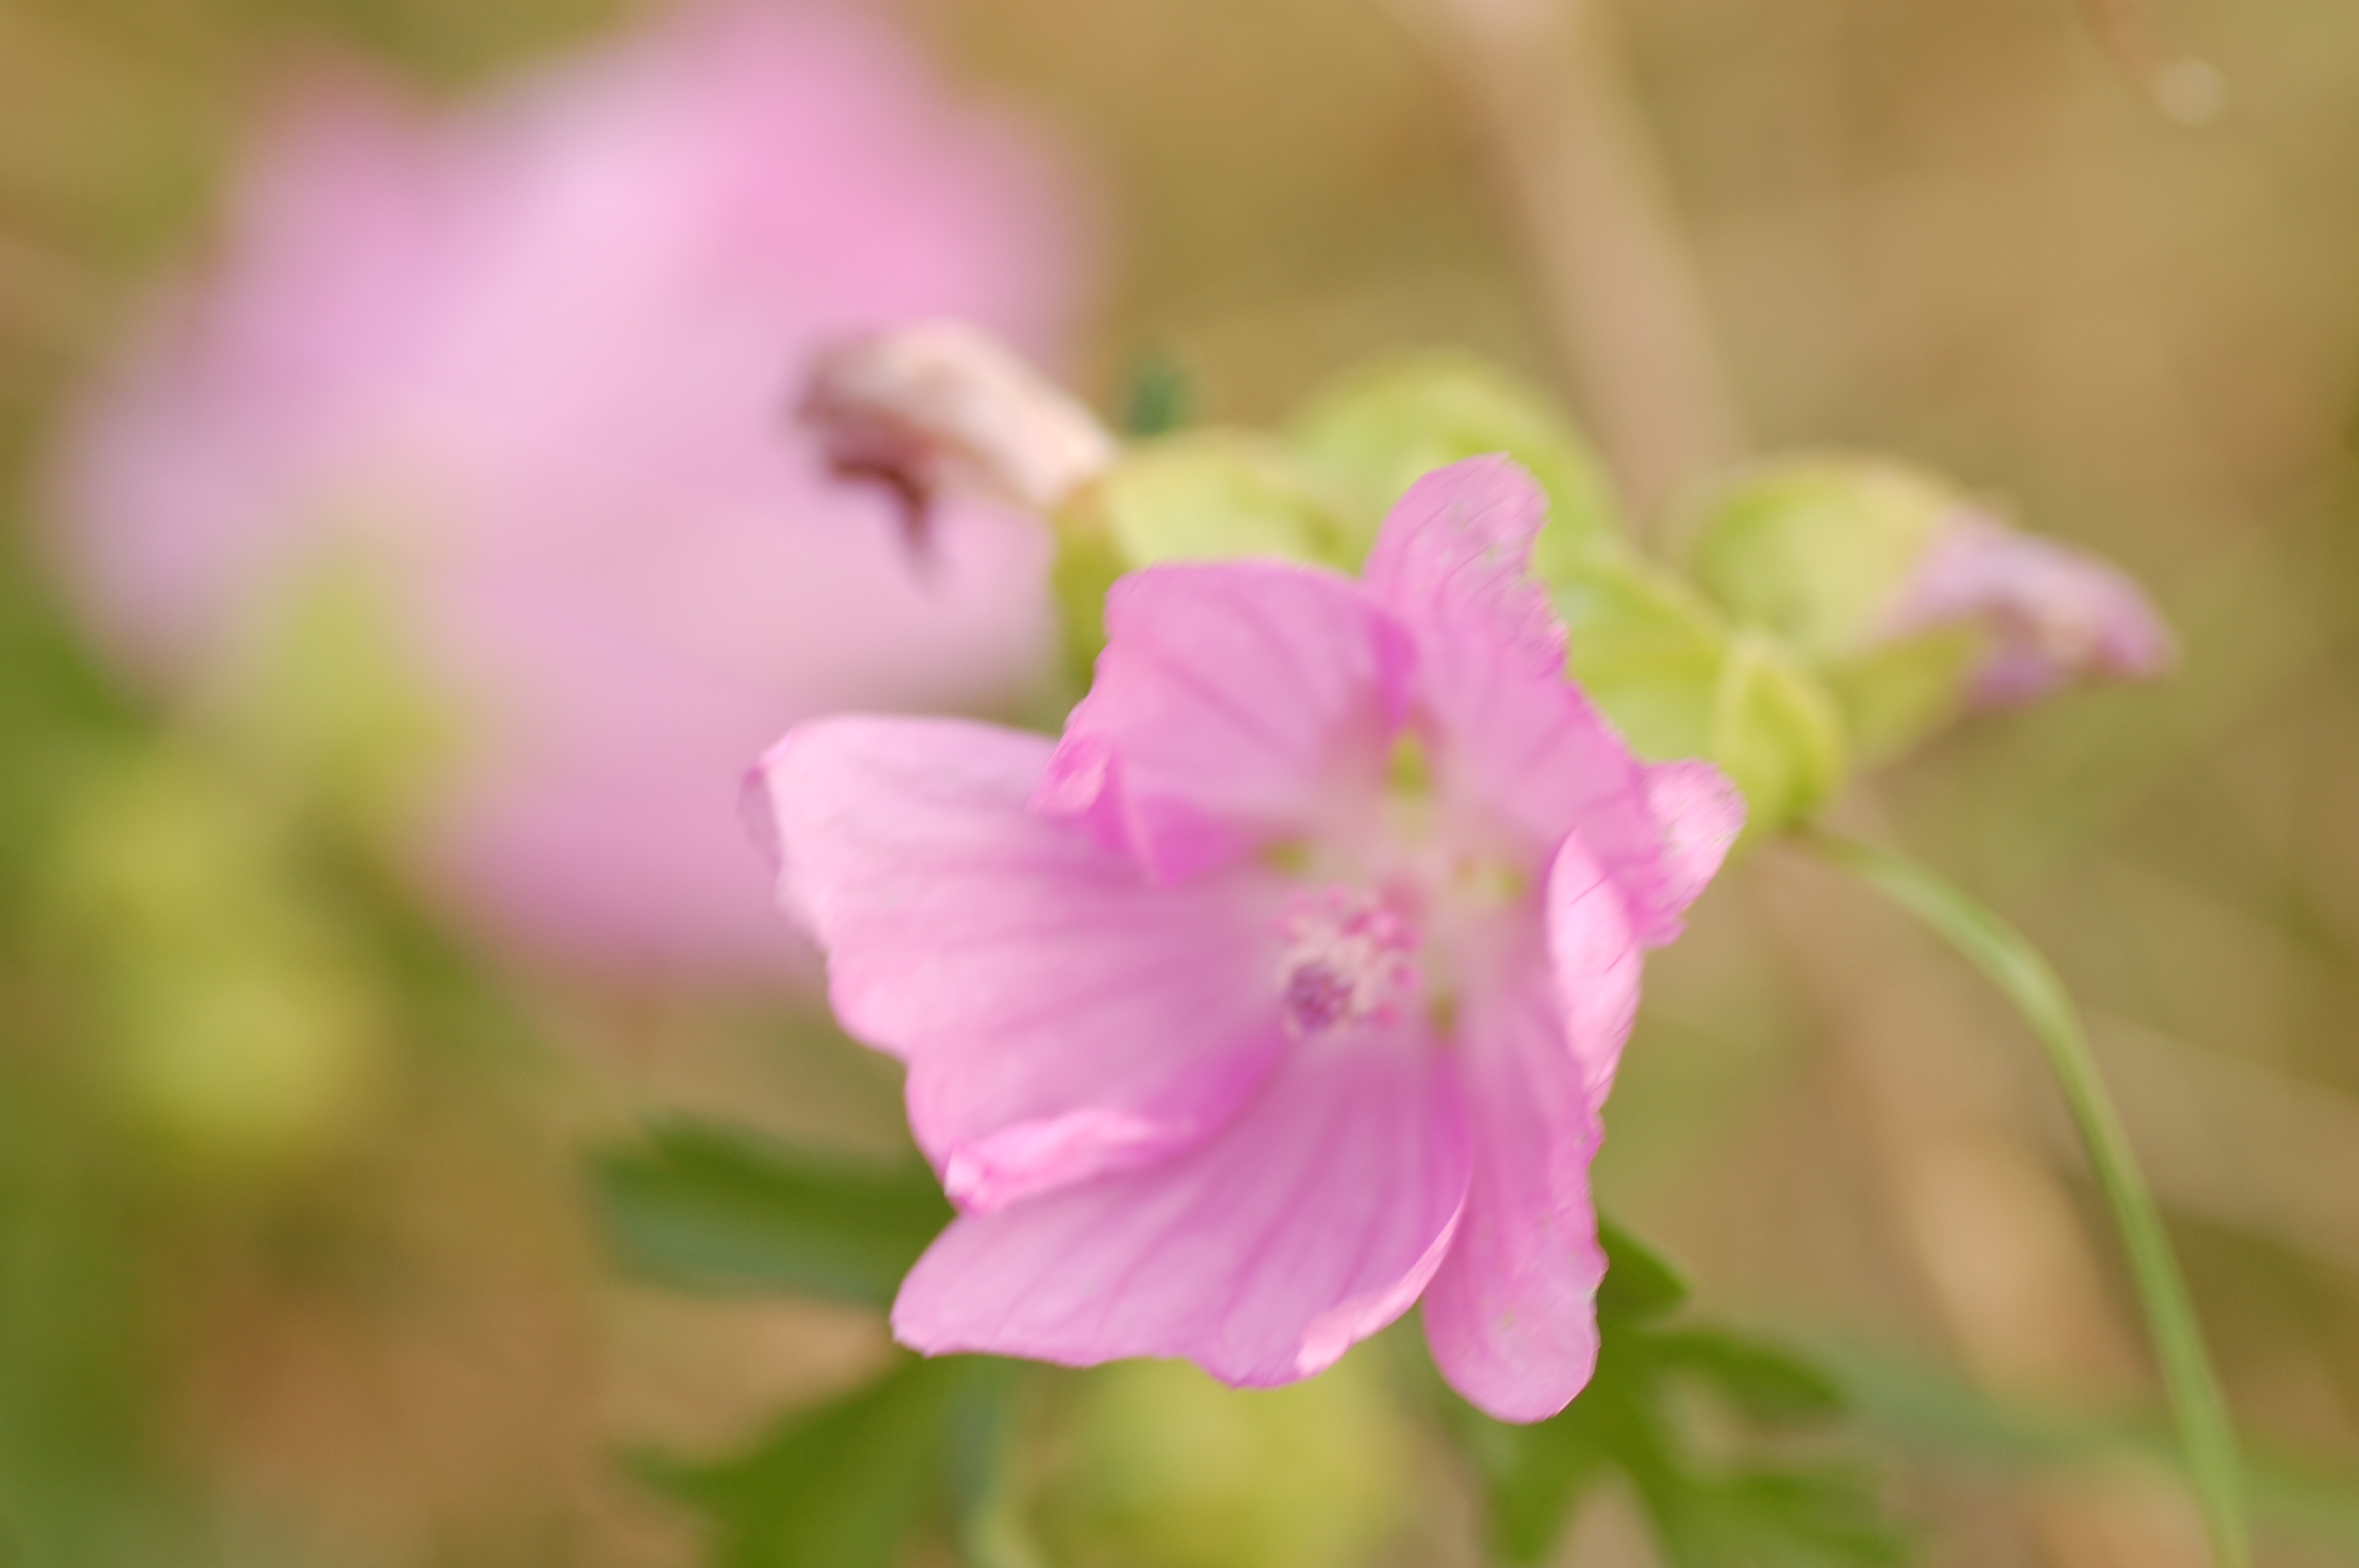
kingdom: Plantae
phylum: Tracheophyta
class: Magnoliopsida
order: Malvales
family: Malvaceae
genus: Malva
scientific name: Malva moschata
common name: Musk mallow
